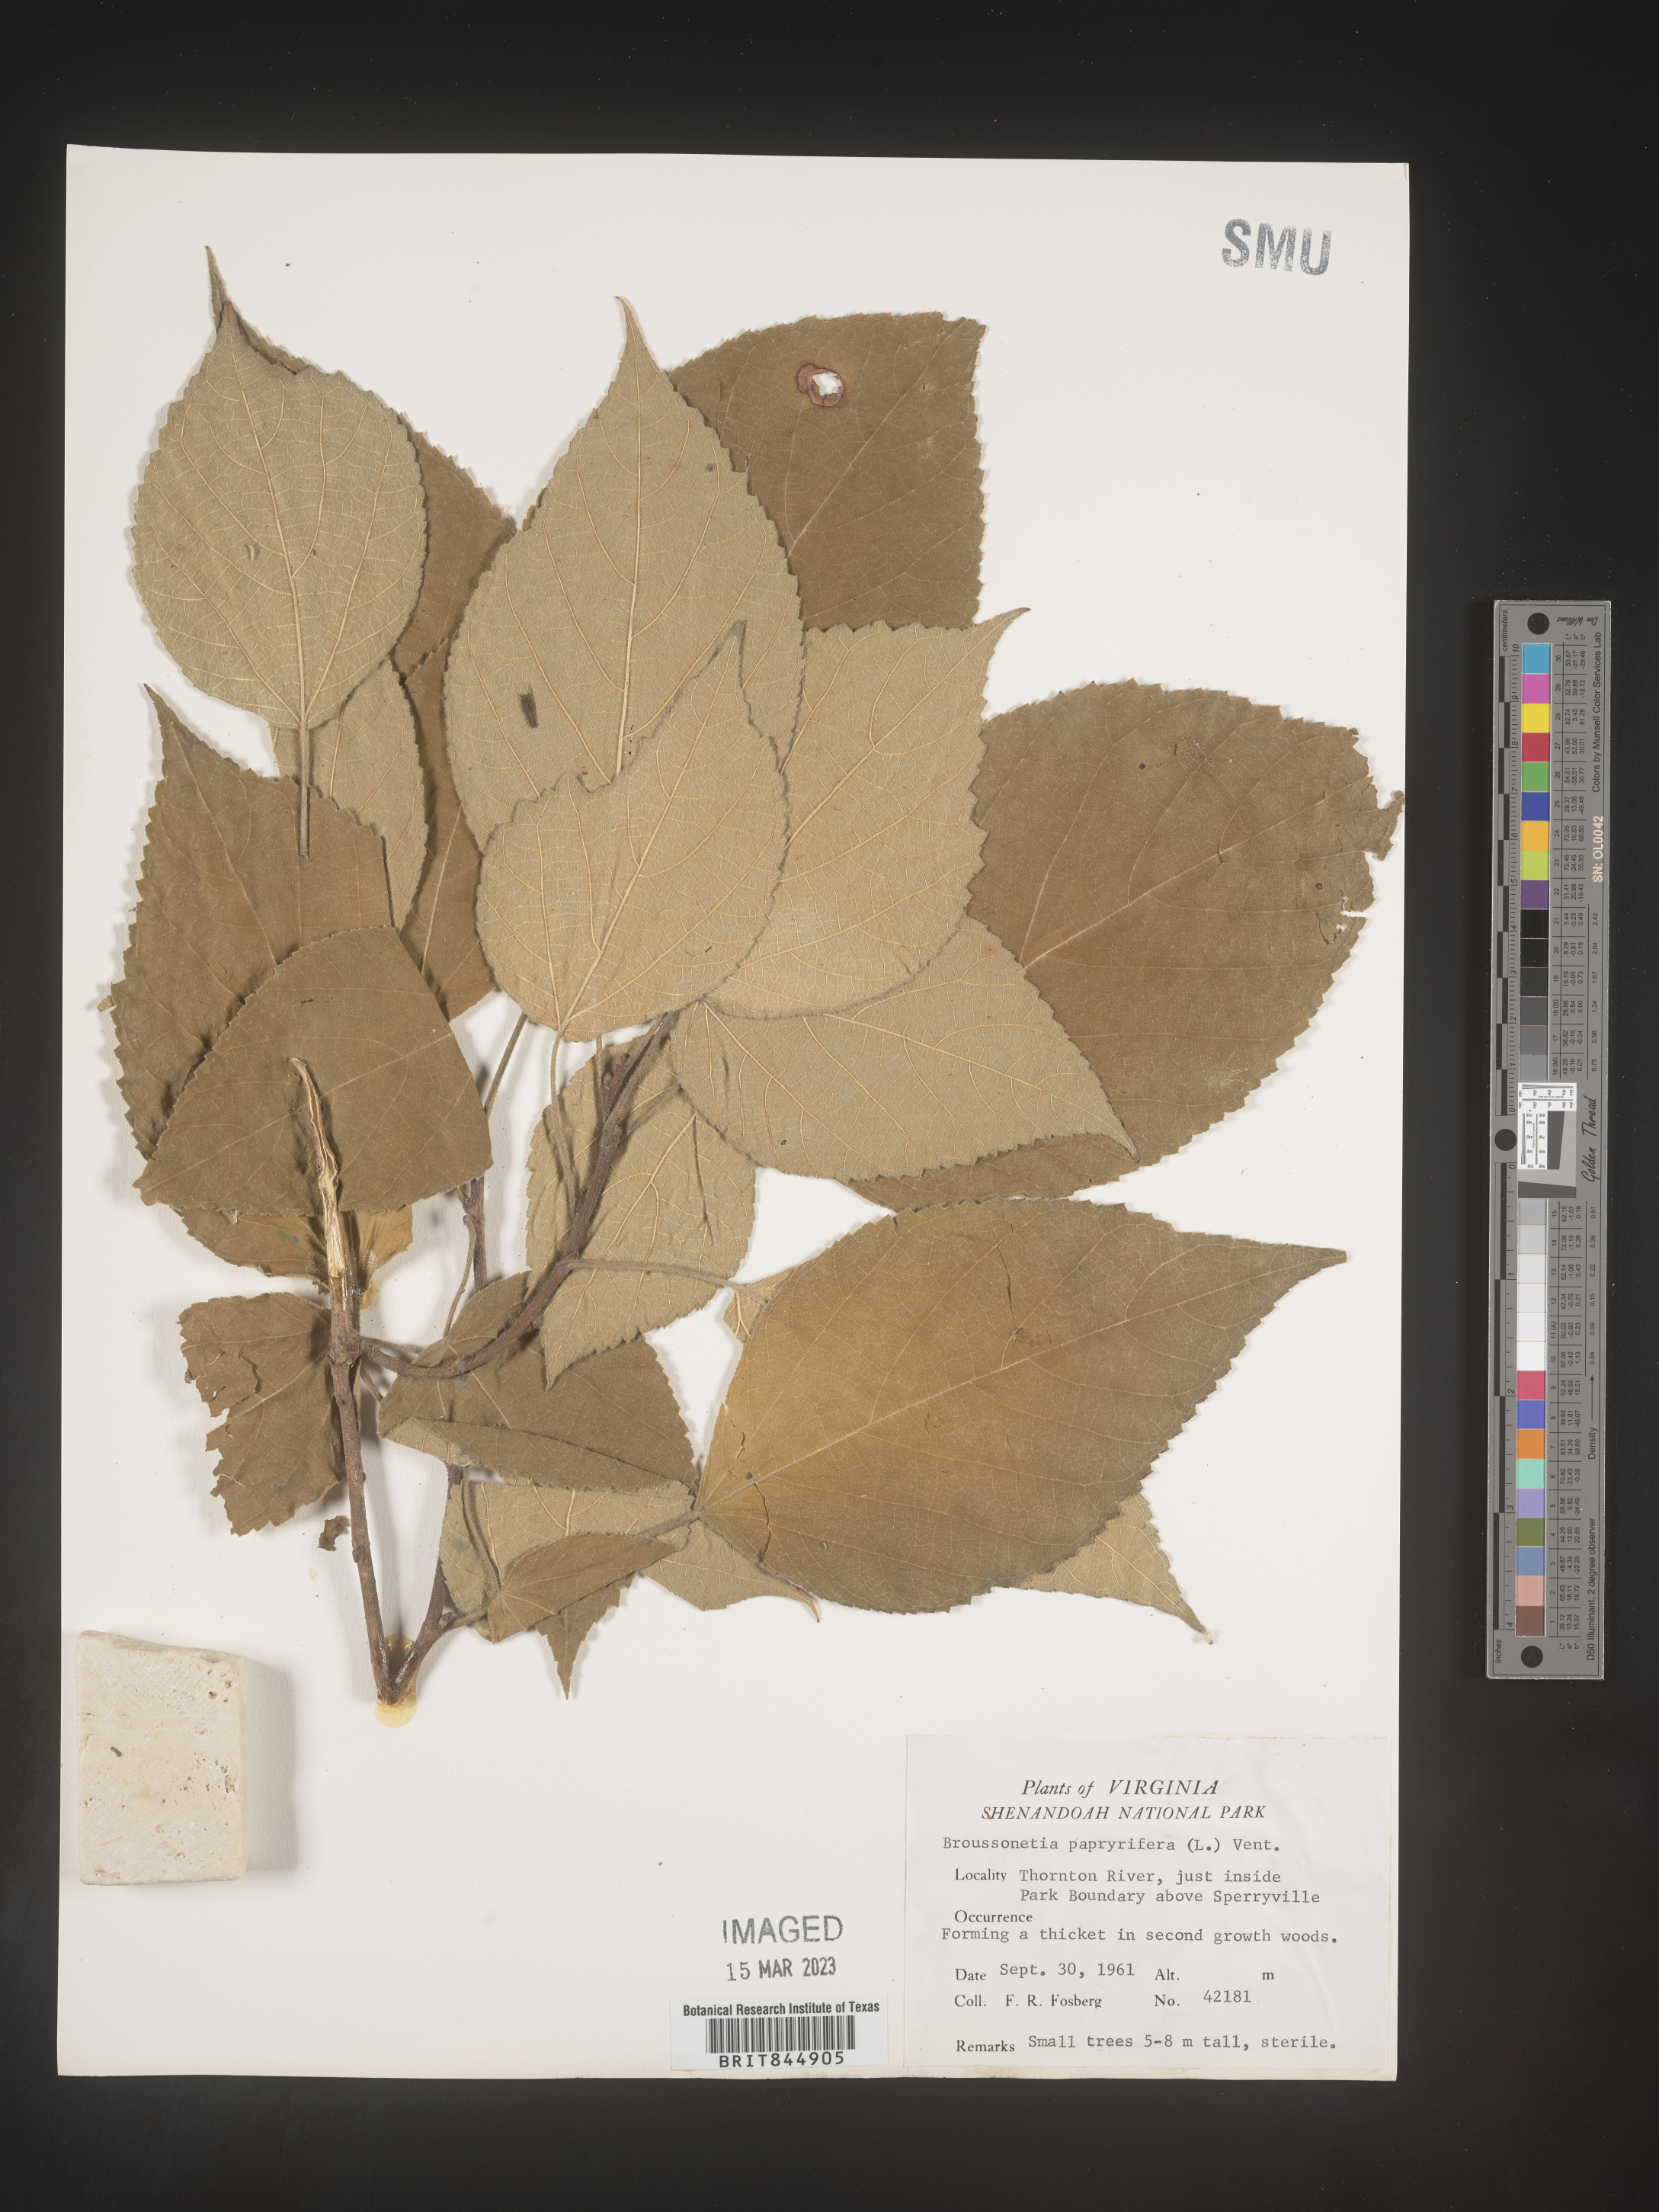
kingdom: Plantae
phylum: Tracheophyta
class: Magnoliopsida
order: Rosales
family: Moraceae
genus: Broussonetia
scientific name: Broussonetia
